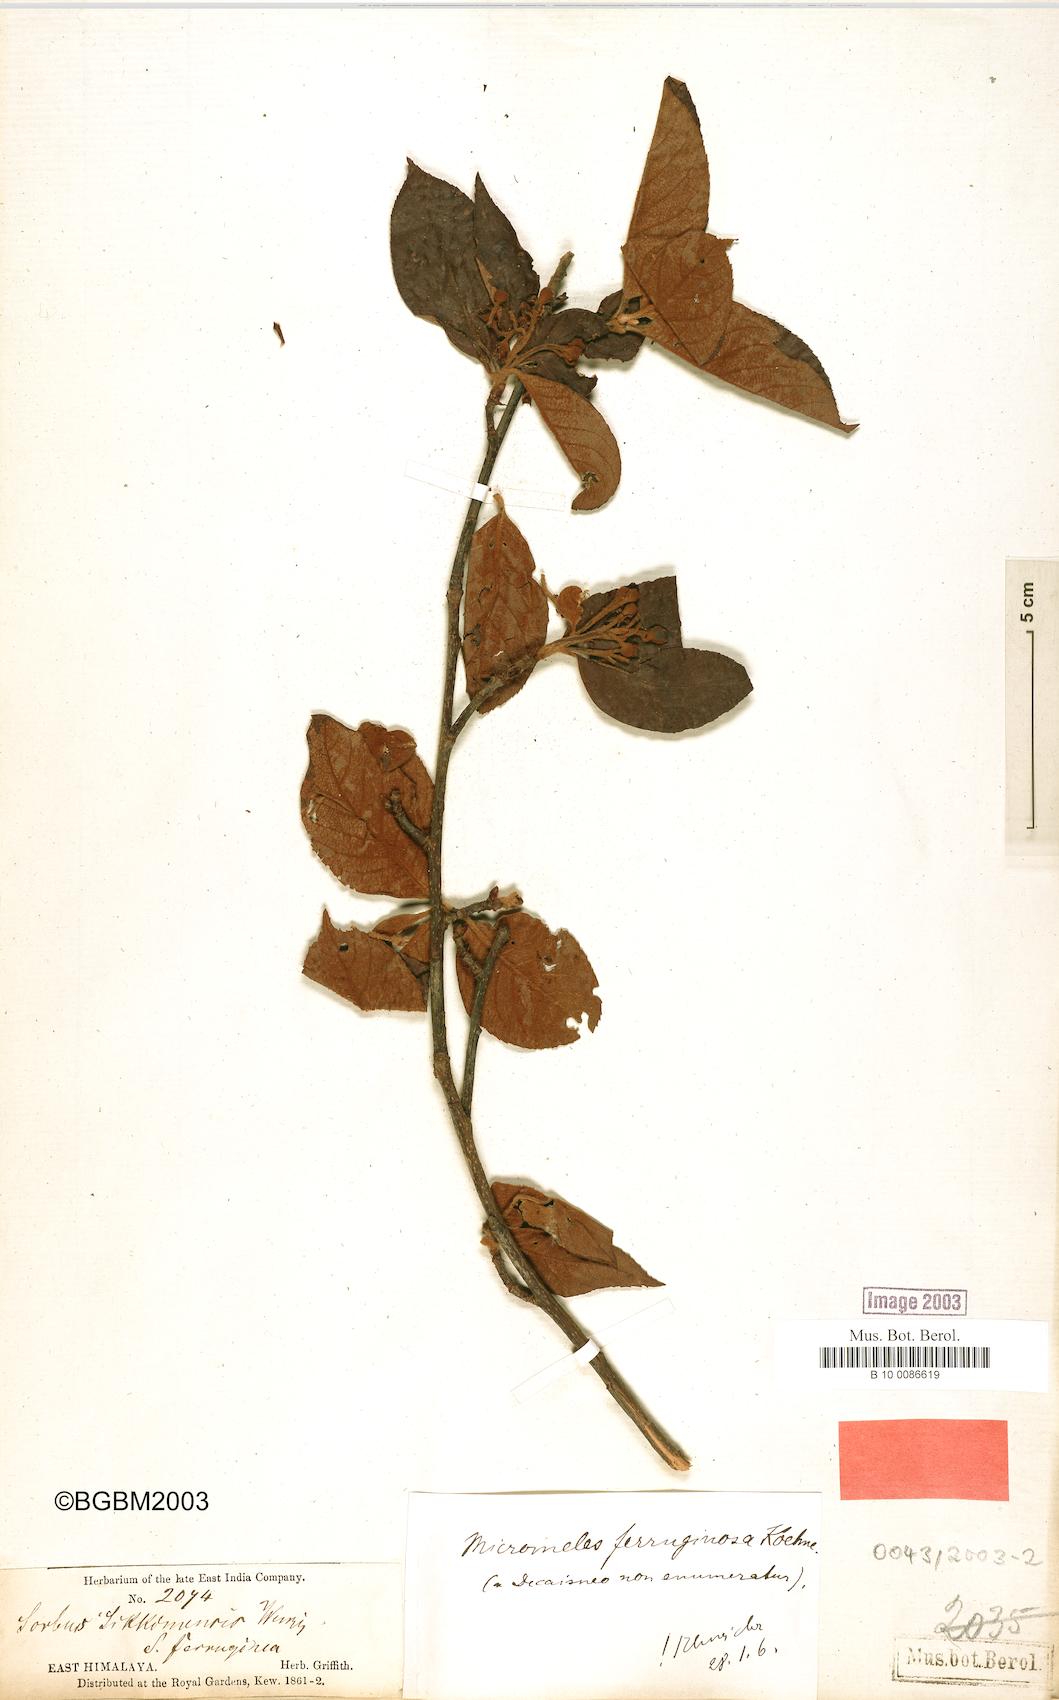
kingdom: Plantae
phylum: Tracheophyta
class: Magnoliopsida
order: Rosales
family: Rosaceae
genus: Sorbus
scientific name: Sorbus ferruginea
